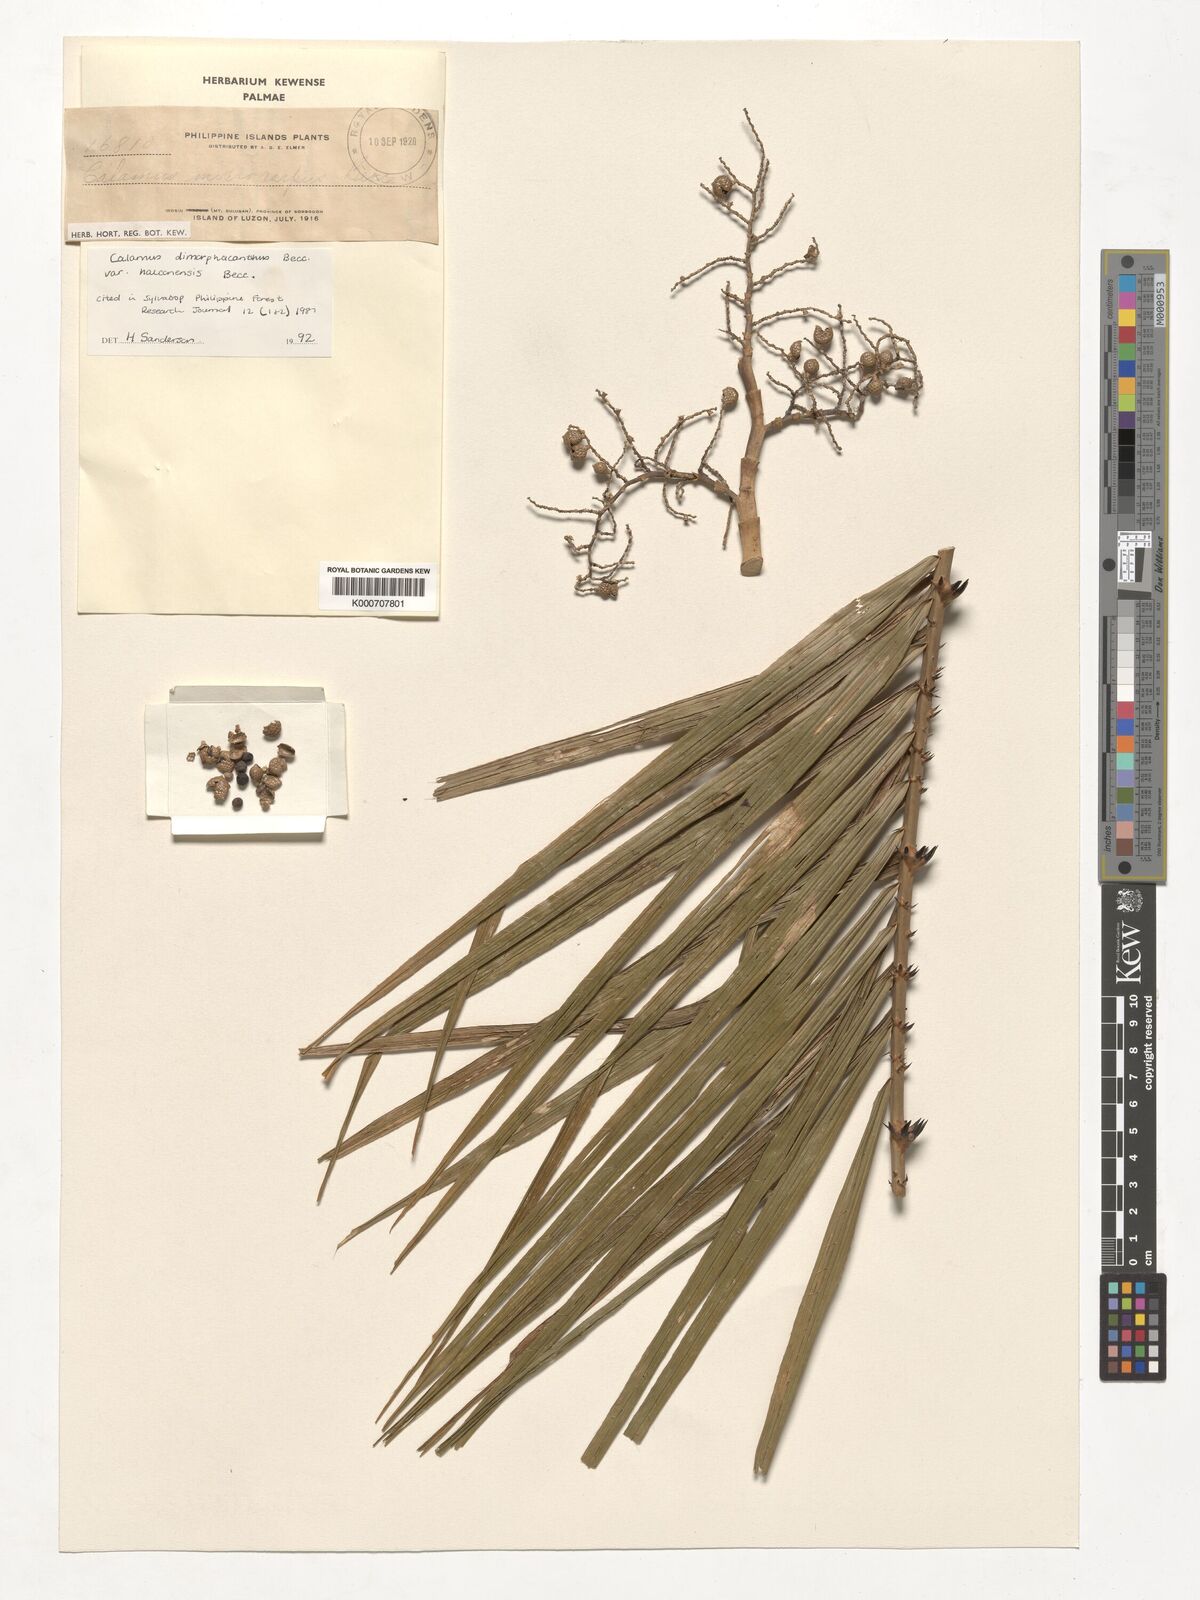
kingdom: Plantae
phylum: Tracheophyta
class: Liliopsida
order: Arecales
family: Arecaceae
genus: Calamus
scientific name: Calamus siphonospathus
